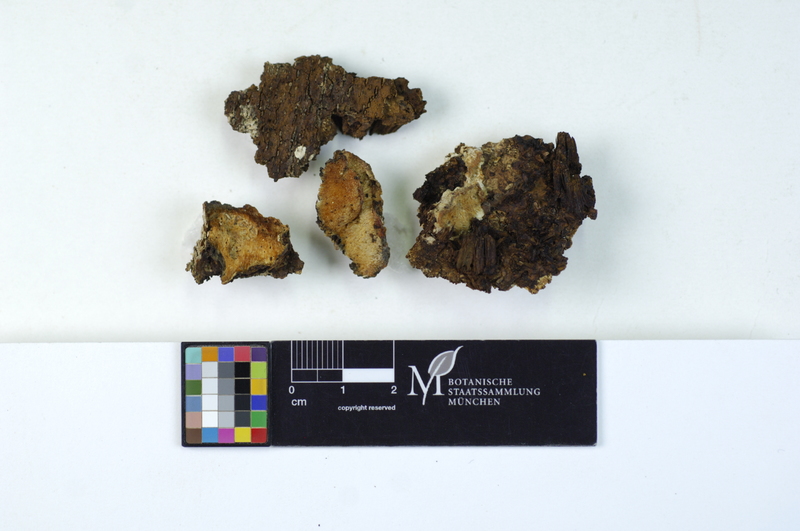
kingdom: Plantae
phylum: Tracheophyta
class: Magnoliopsida
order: Fagales
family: Fagaceae
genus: Fagus
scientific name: Fagus sylvatica
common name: Beech
